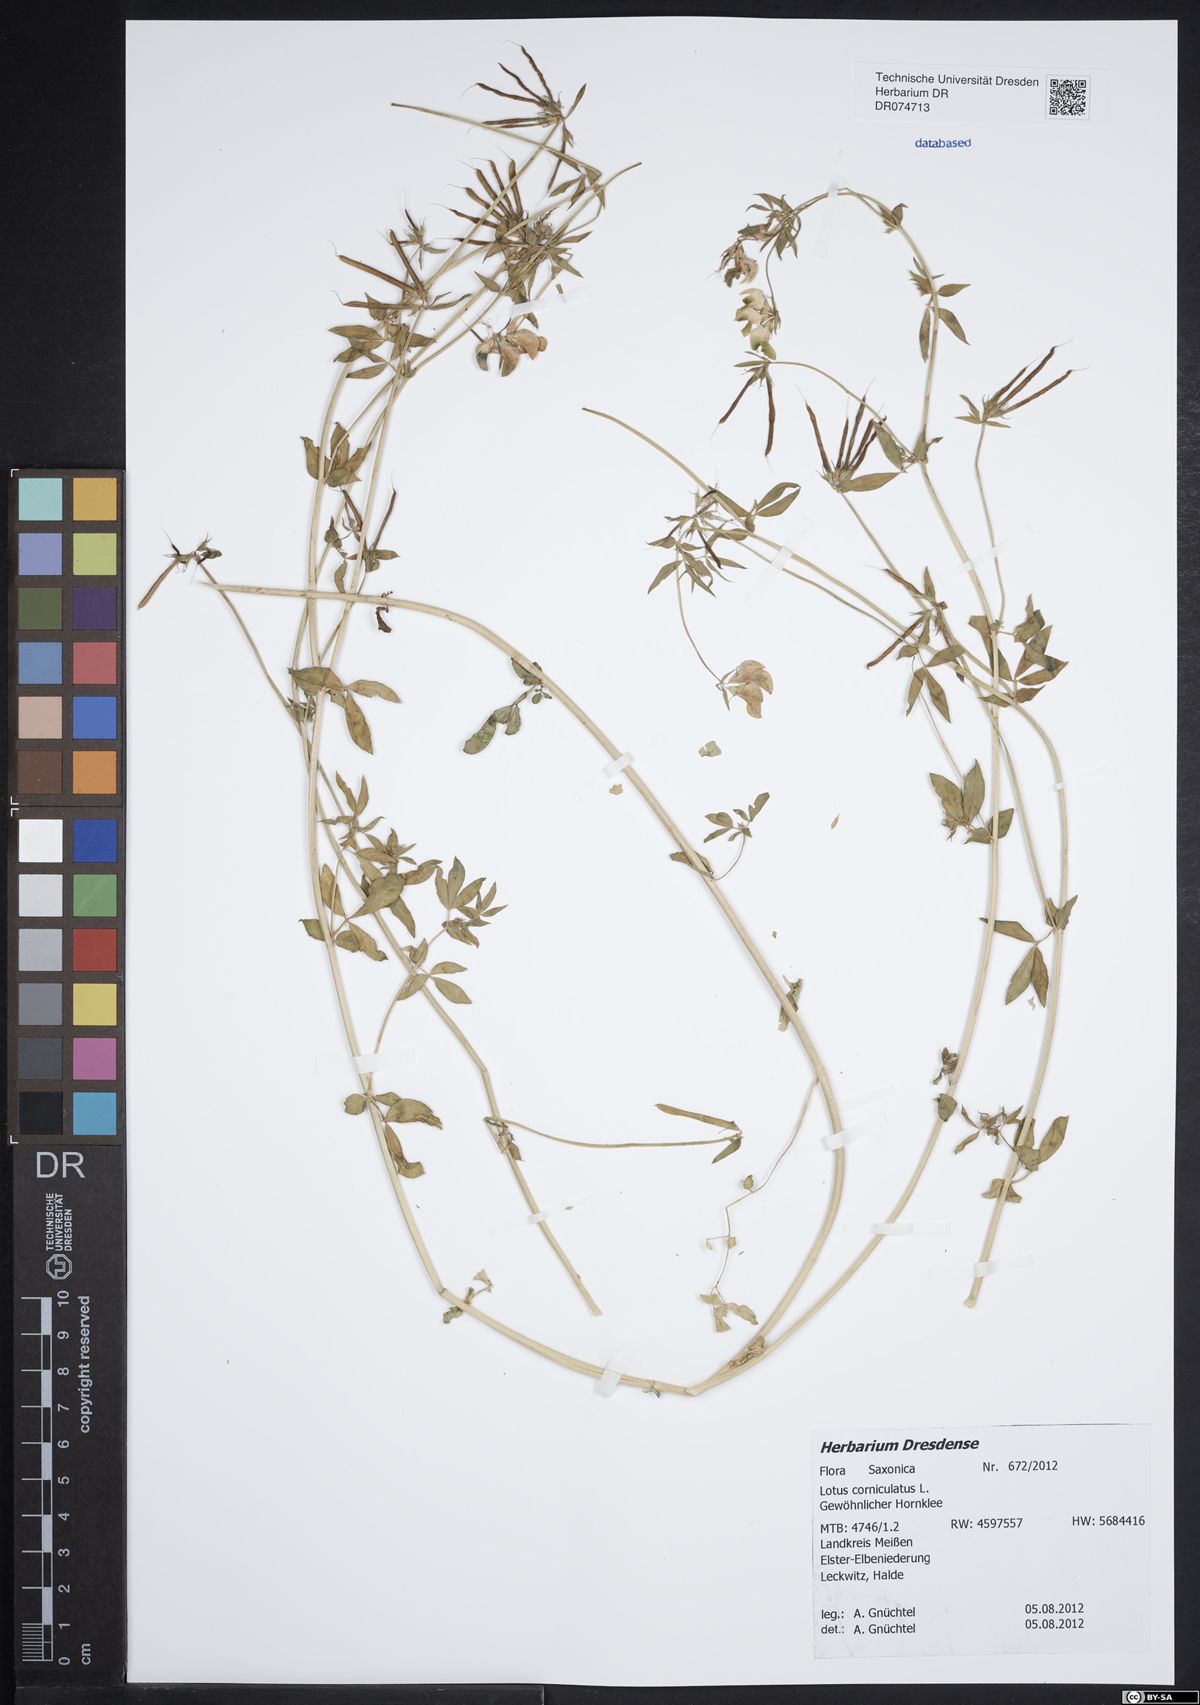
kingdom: Plantae
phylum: Tracheophyta
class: Magnoliopsida
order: Fabales
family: Fabaceae
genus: Lotus
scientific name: Lotus corniculatus
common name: Common bird's-foot-trefoil
